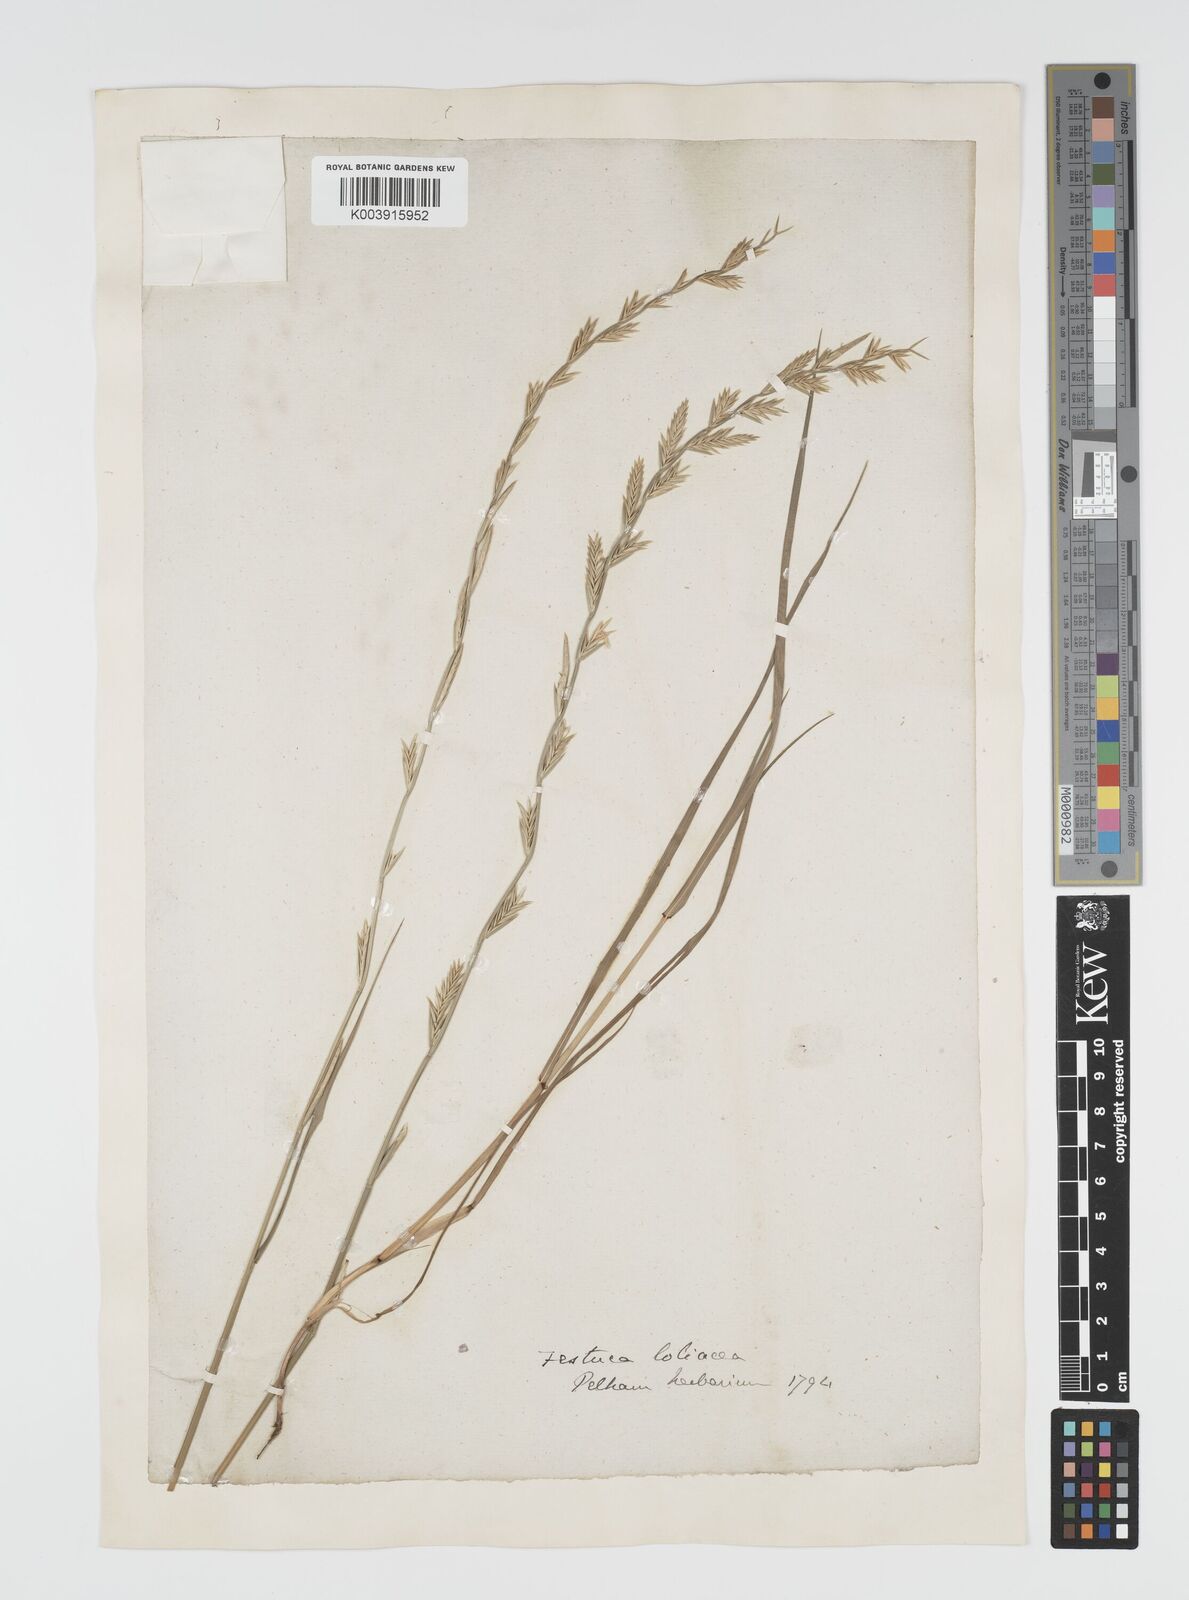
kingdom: Plantae
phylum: Tracheophyta
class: Liliopsida
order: Poales
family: Poaceae
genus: Lolium
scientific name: Lolium multiflorum
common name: Annual ryegrass
